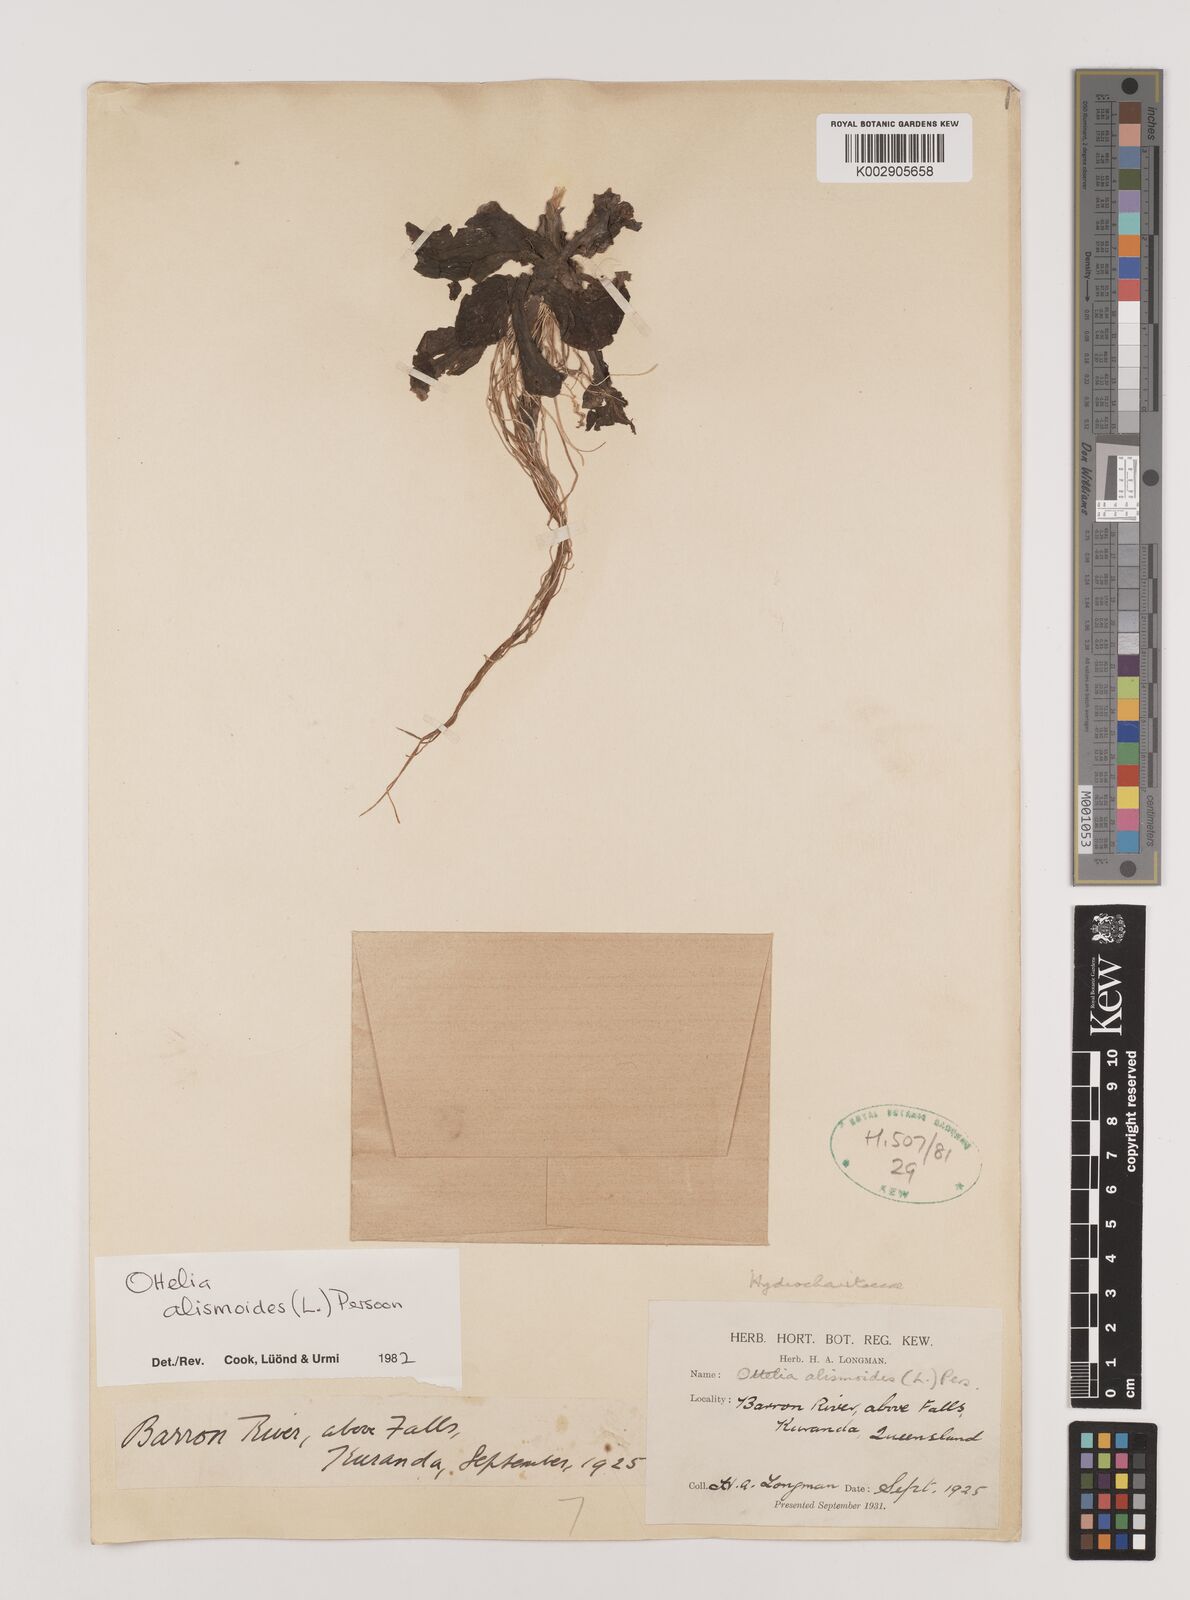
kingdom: Plantae
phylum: Tracheophyta
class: Liliopsida
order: Alismatales
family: Hydrocharitaceae
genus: Ottelia
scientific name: Ottelia alismoides
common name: Duck-lettuce
